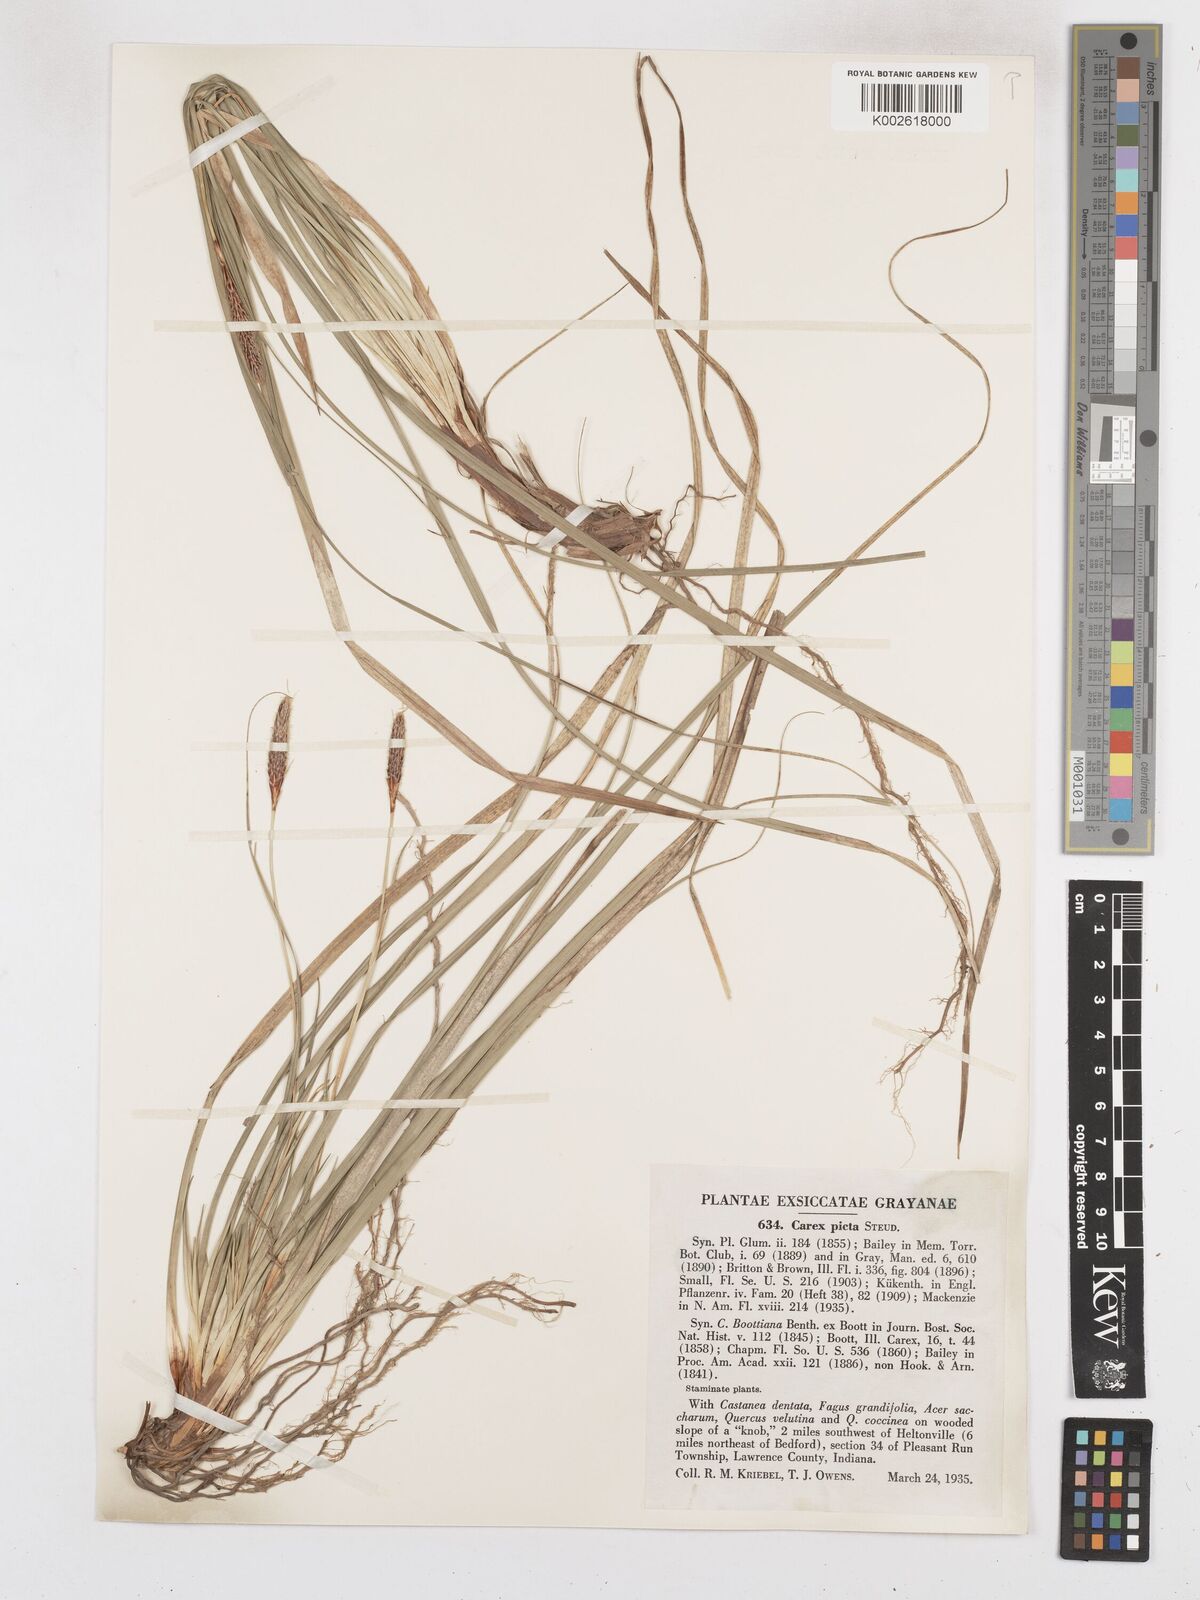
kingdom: Plantae
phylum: Tracheophyta
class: Liliopsida
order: Poales
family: Cyperaceae
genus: Carex
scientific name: Carex picta
